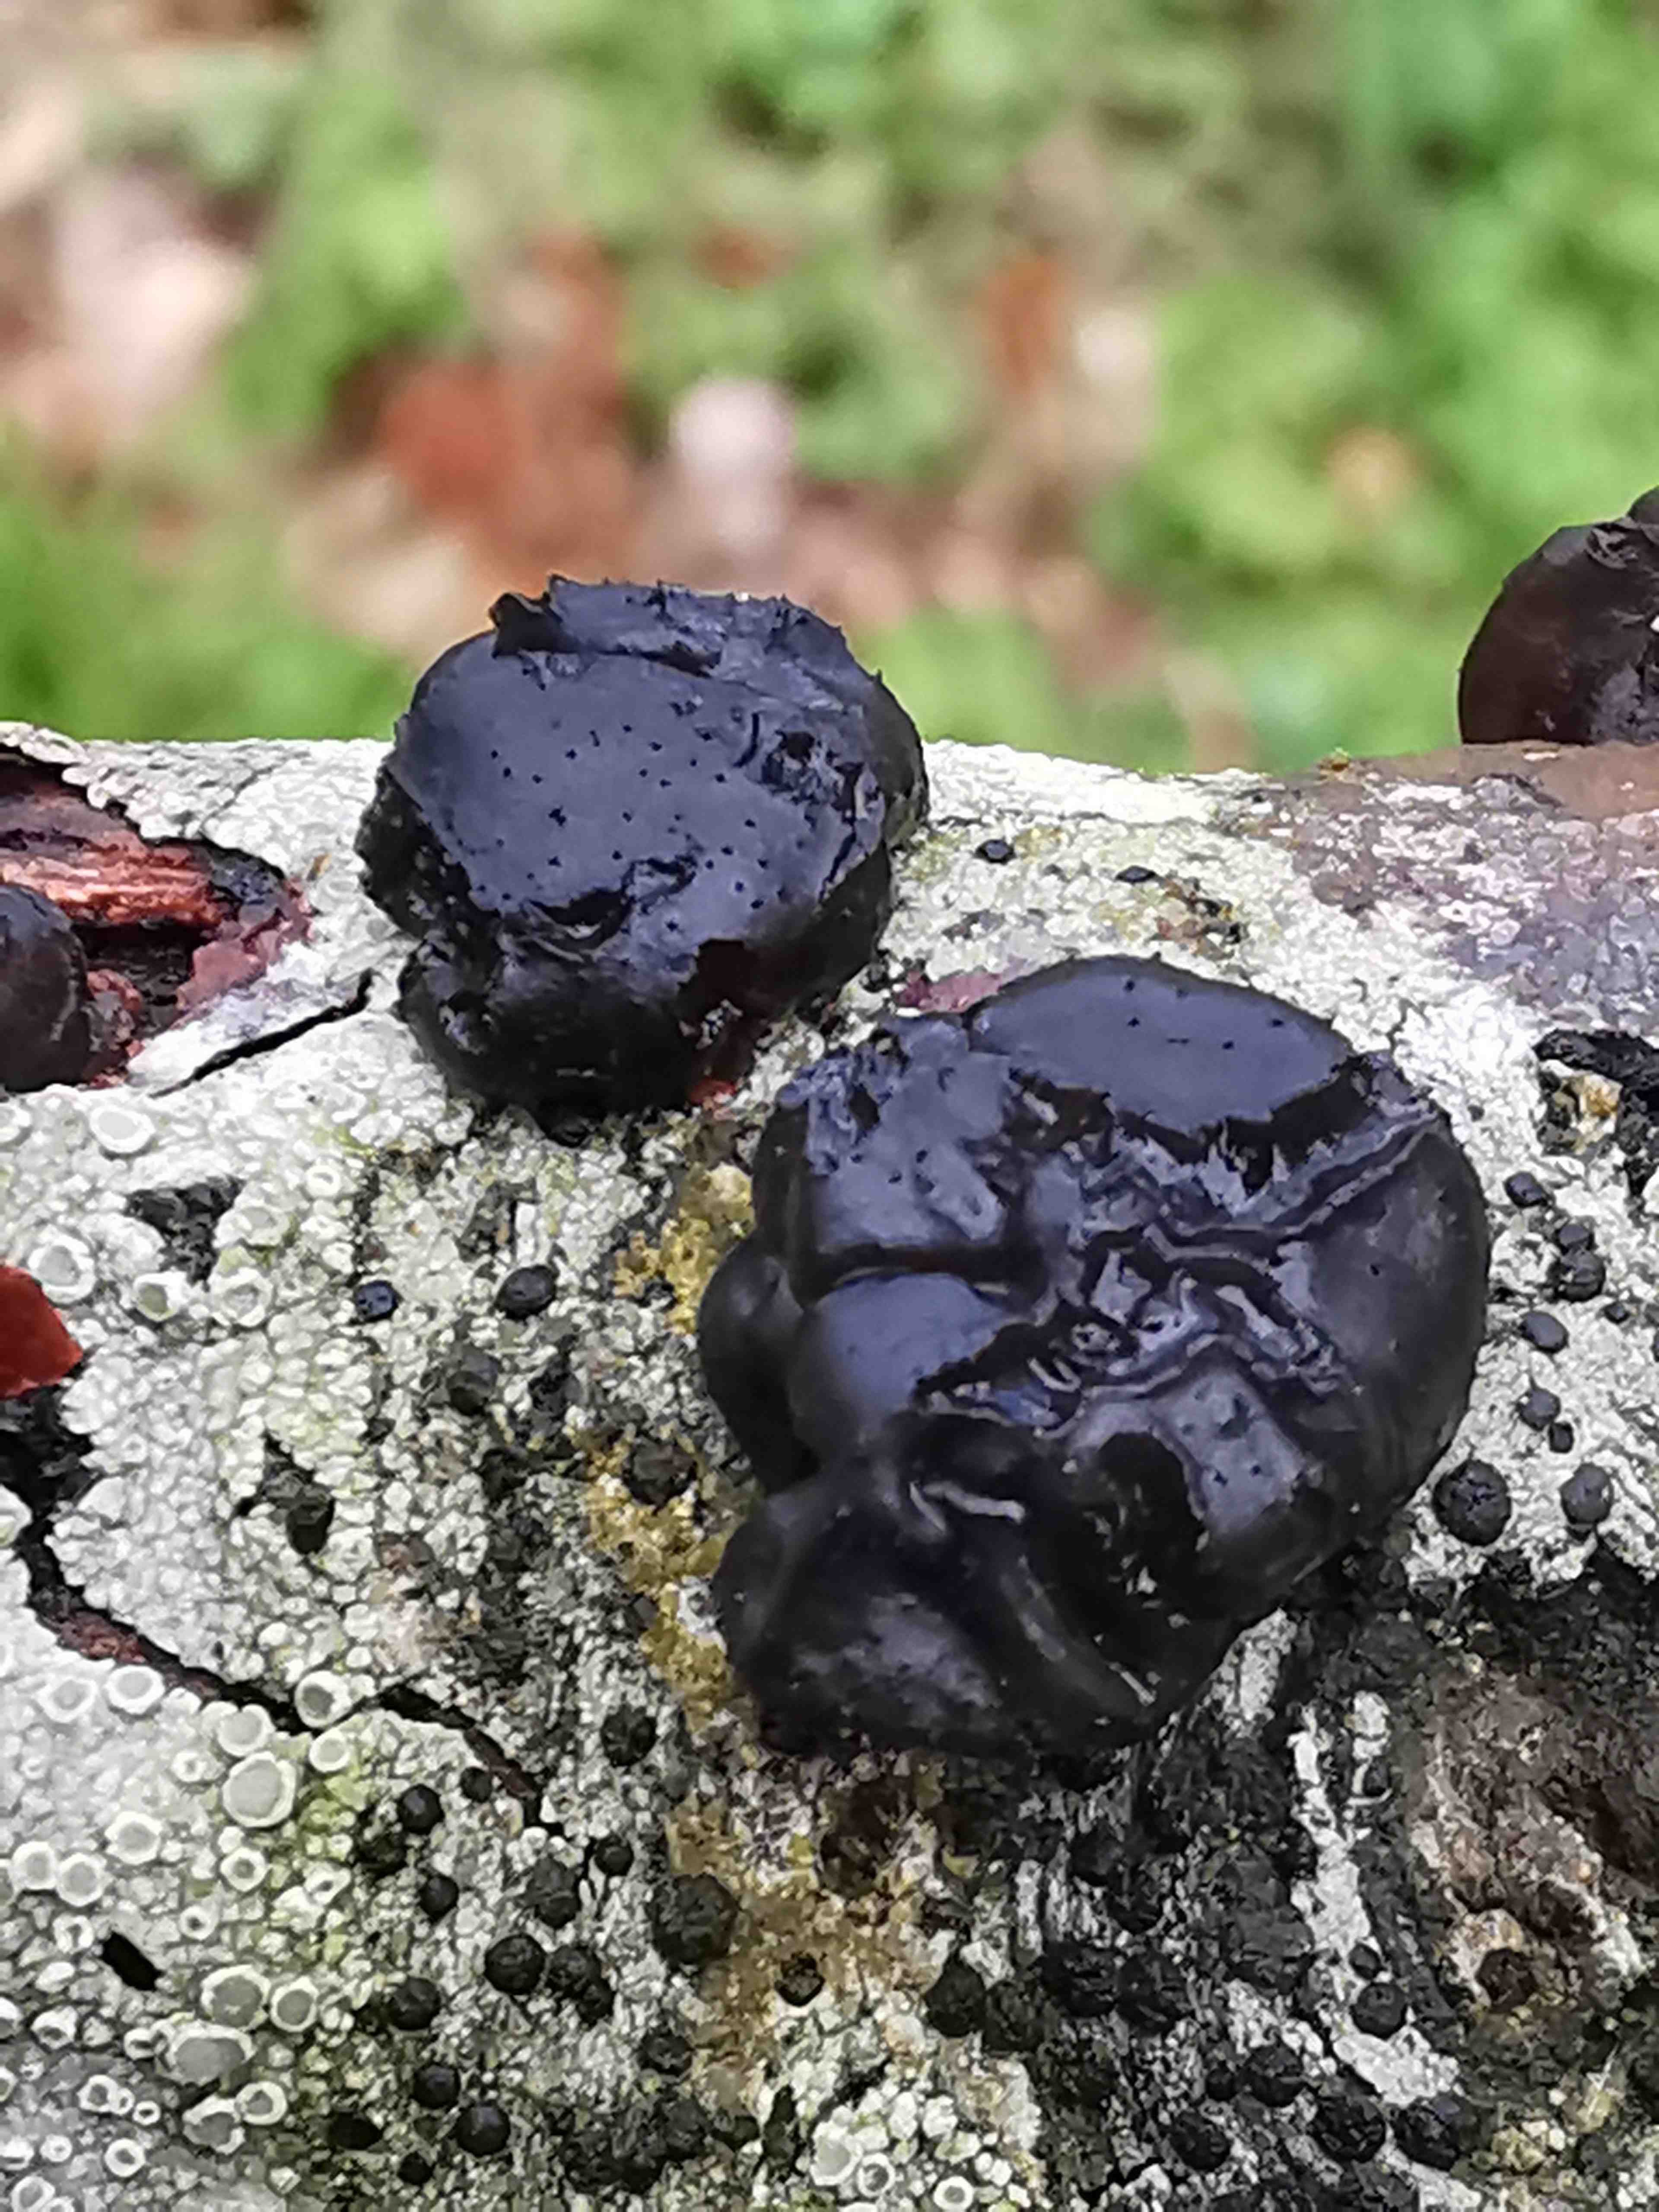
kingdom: Fungi
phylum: Basidiomycota
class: Tremellomycetes
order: Tremellales
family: Exidiaceae
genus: Exidia
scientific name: Exidia
